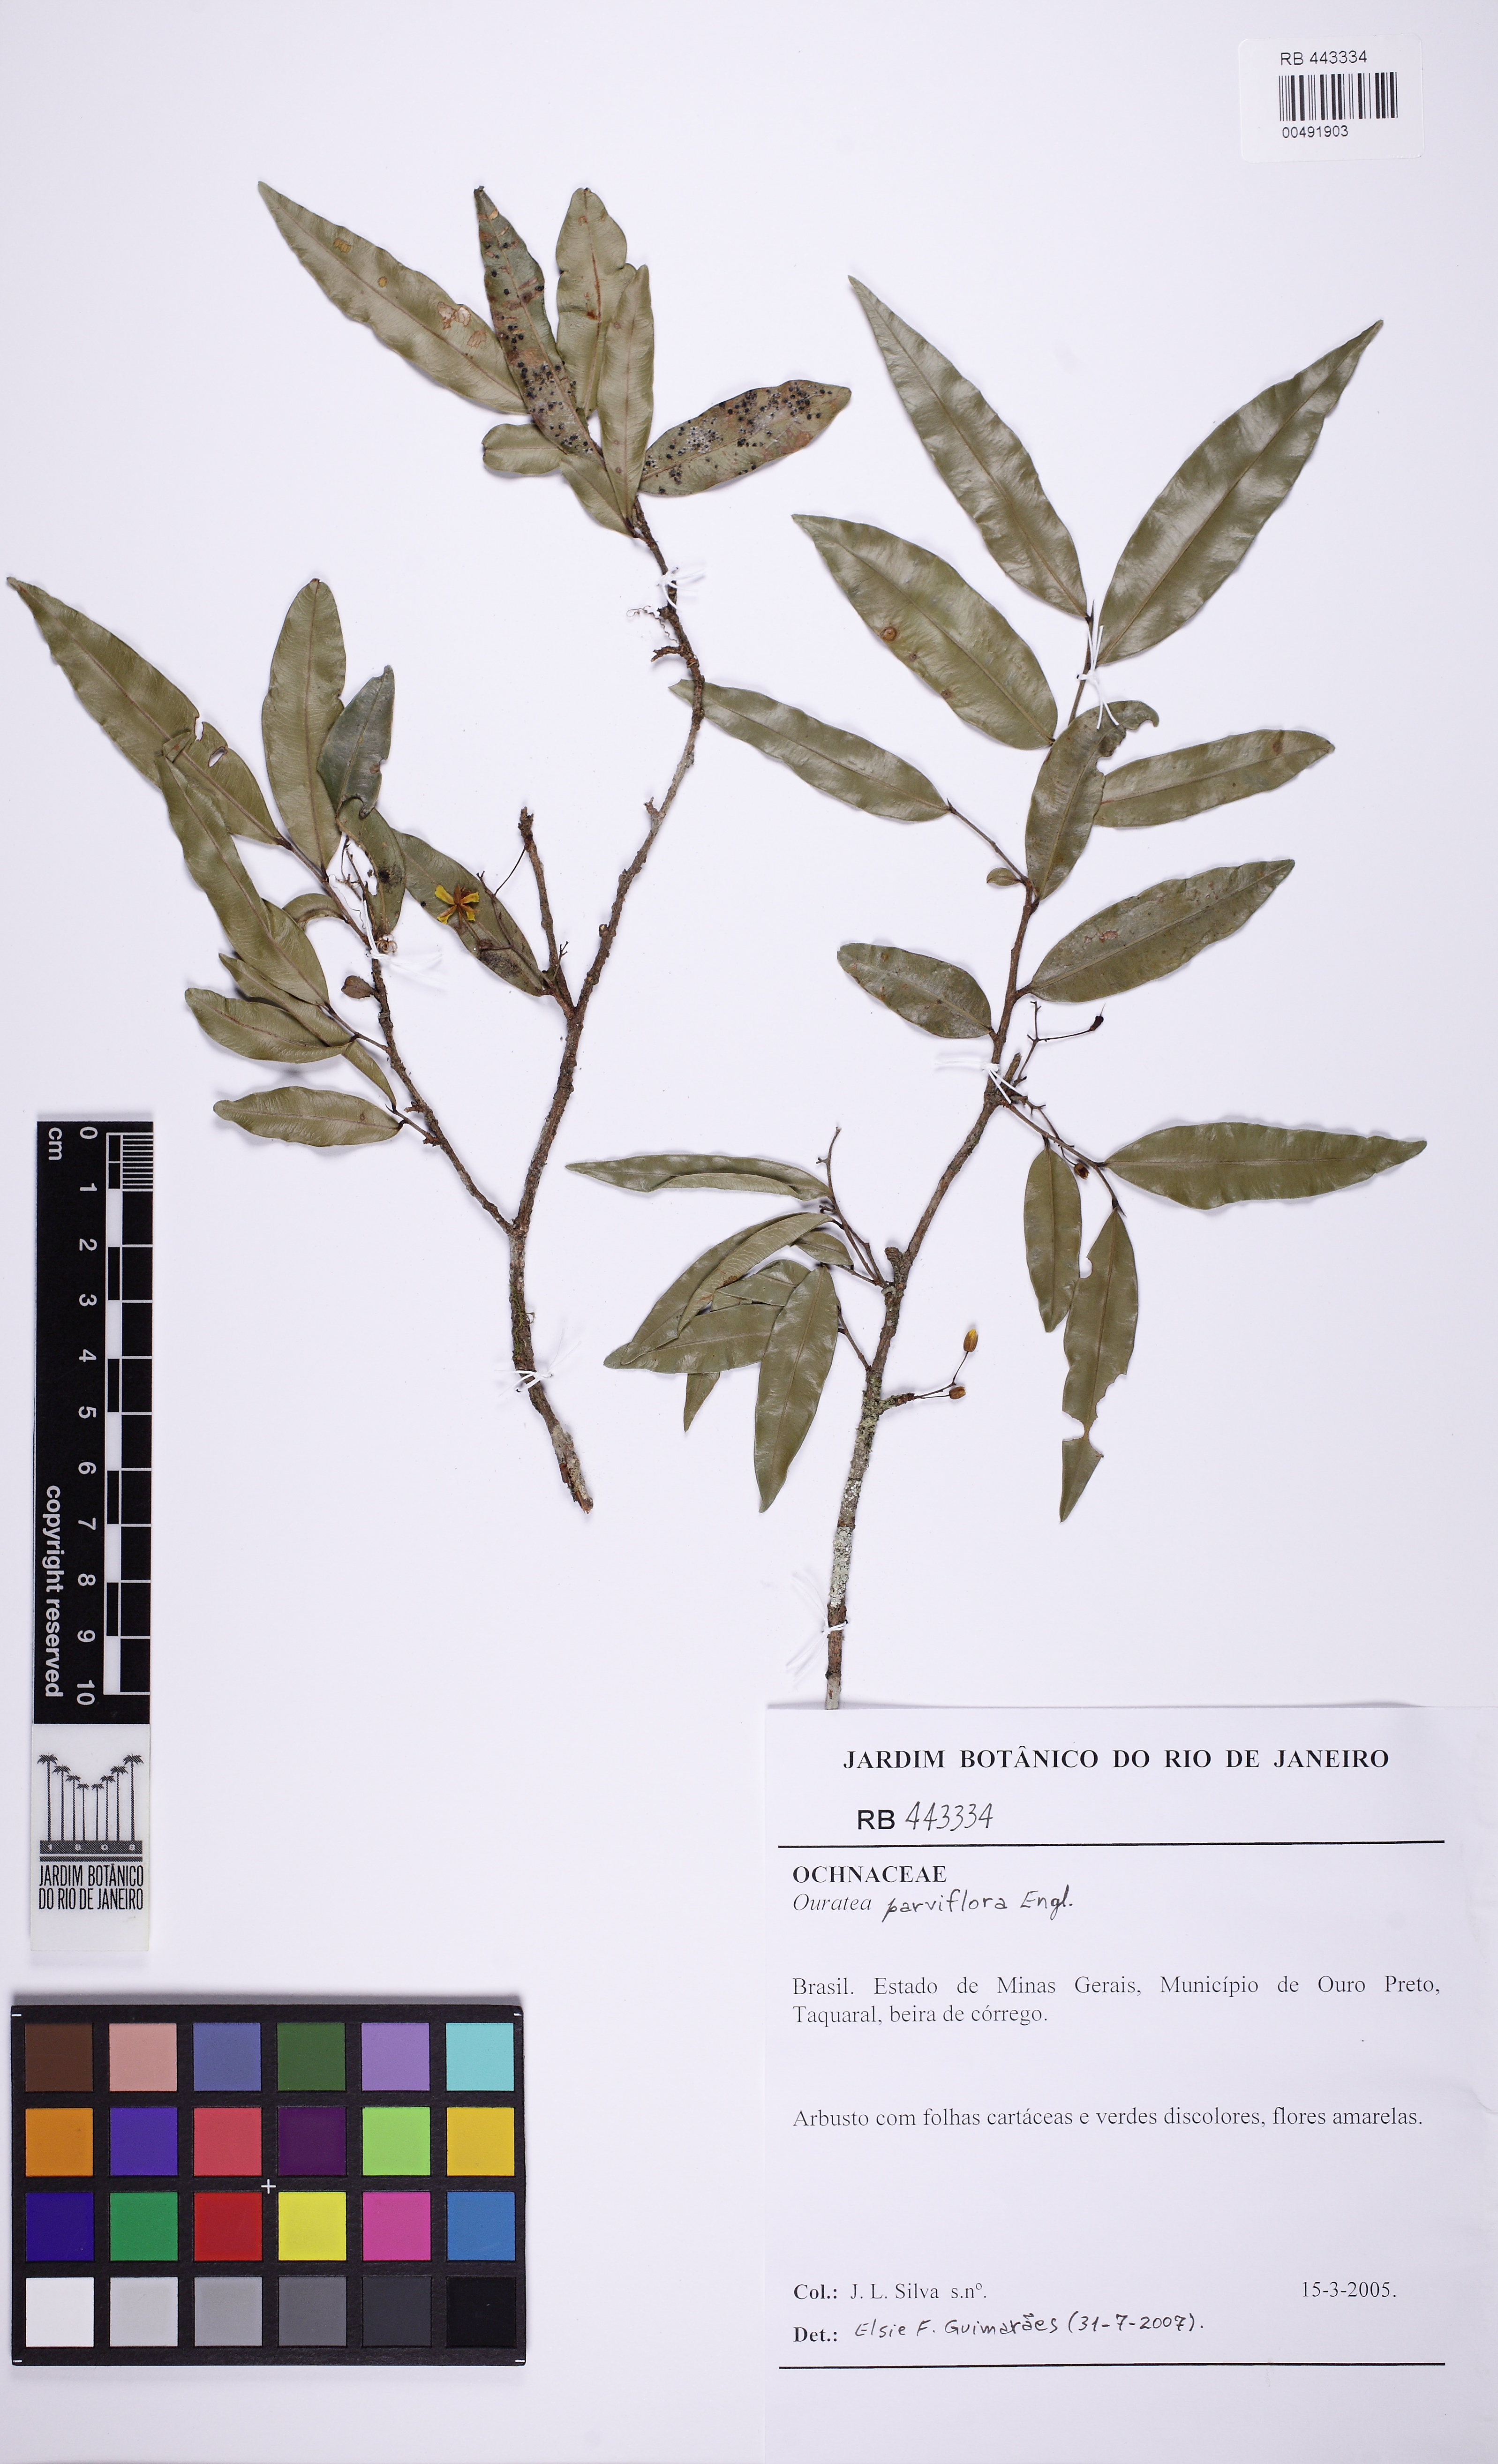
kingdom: Plantae
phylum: Tracheophyta
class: Magnoliopsida
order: Malpighiales
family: Ochnaceae
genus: Ouratea
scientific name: Ouratea parviflora
